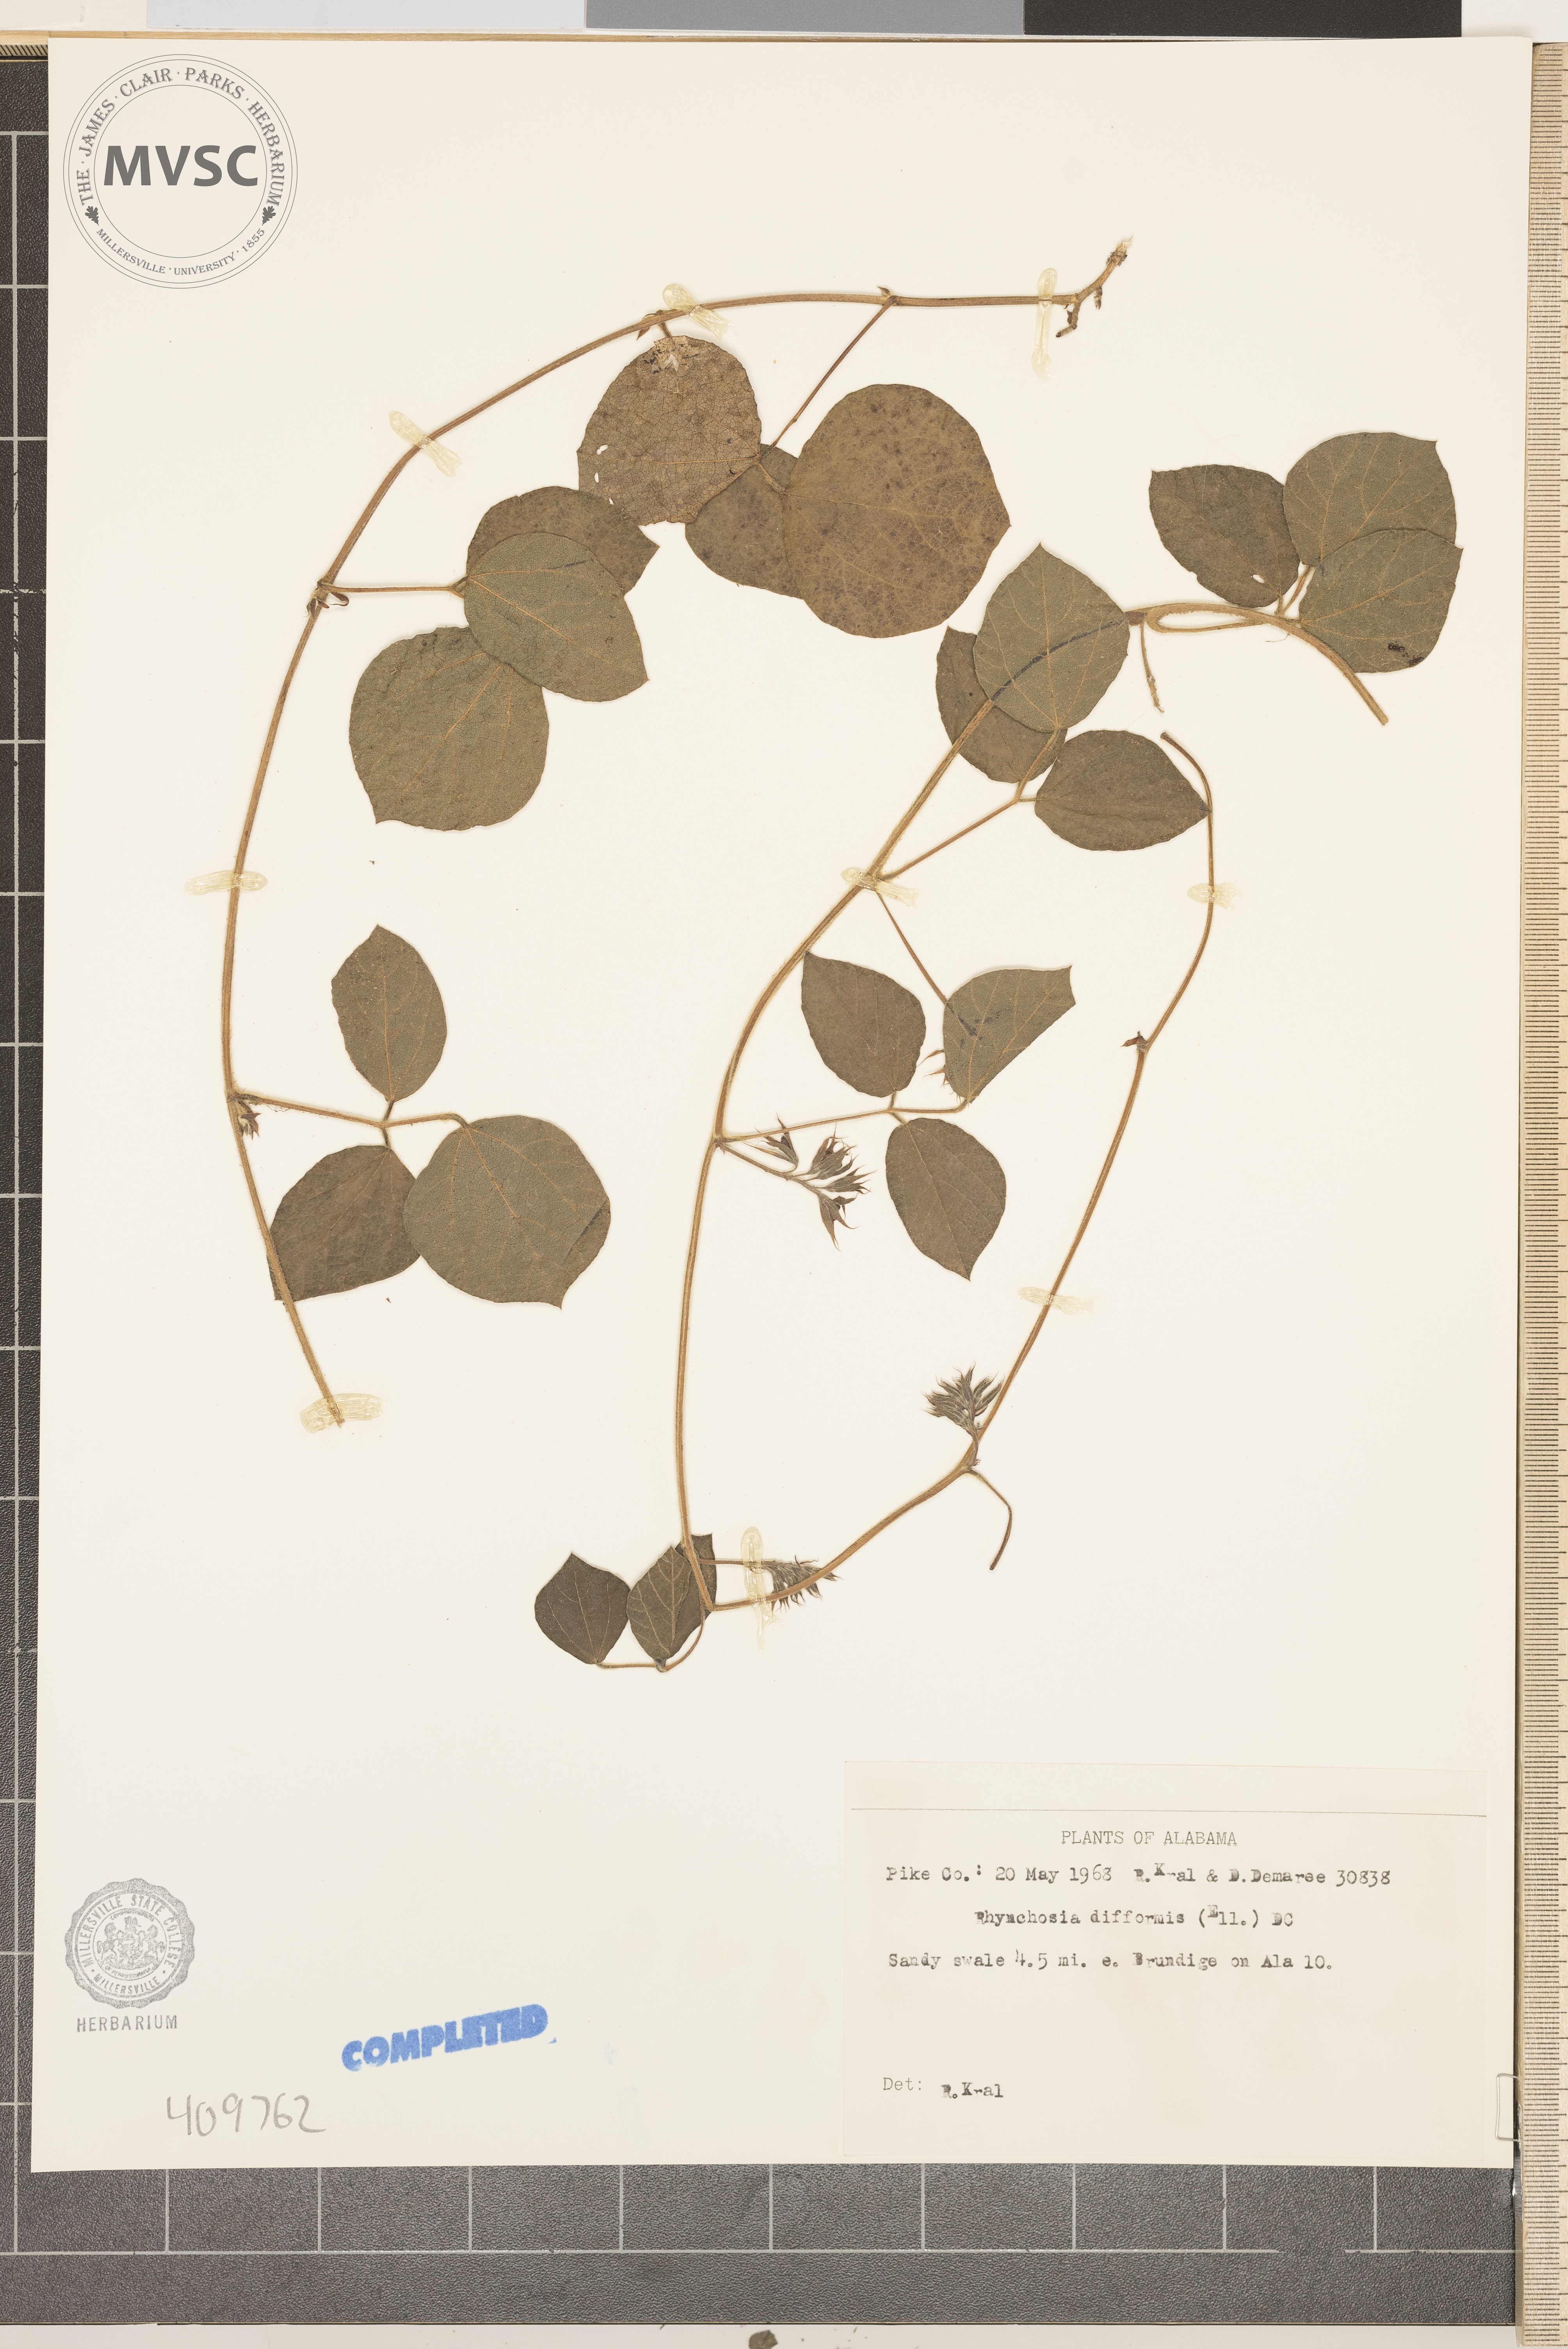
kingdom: Plantae
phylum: Tracheophyta
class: Magnoliopsida
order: Fabales
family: Fabaceae
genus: Rhynchosia
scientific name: Rhynchosia difformis
